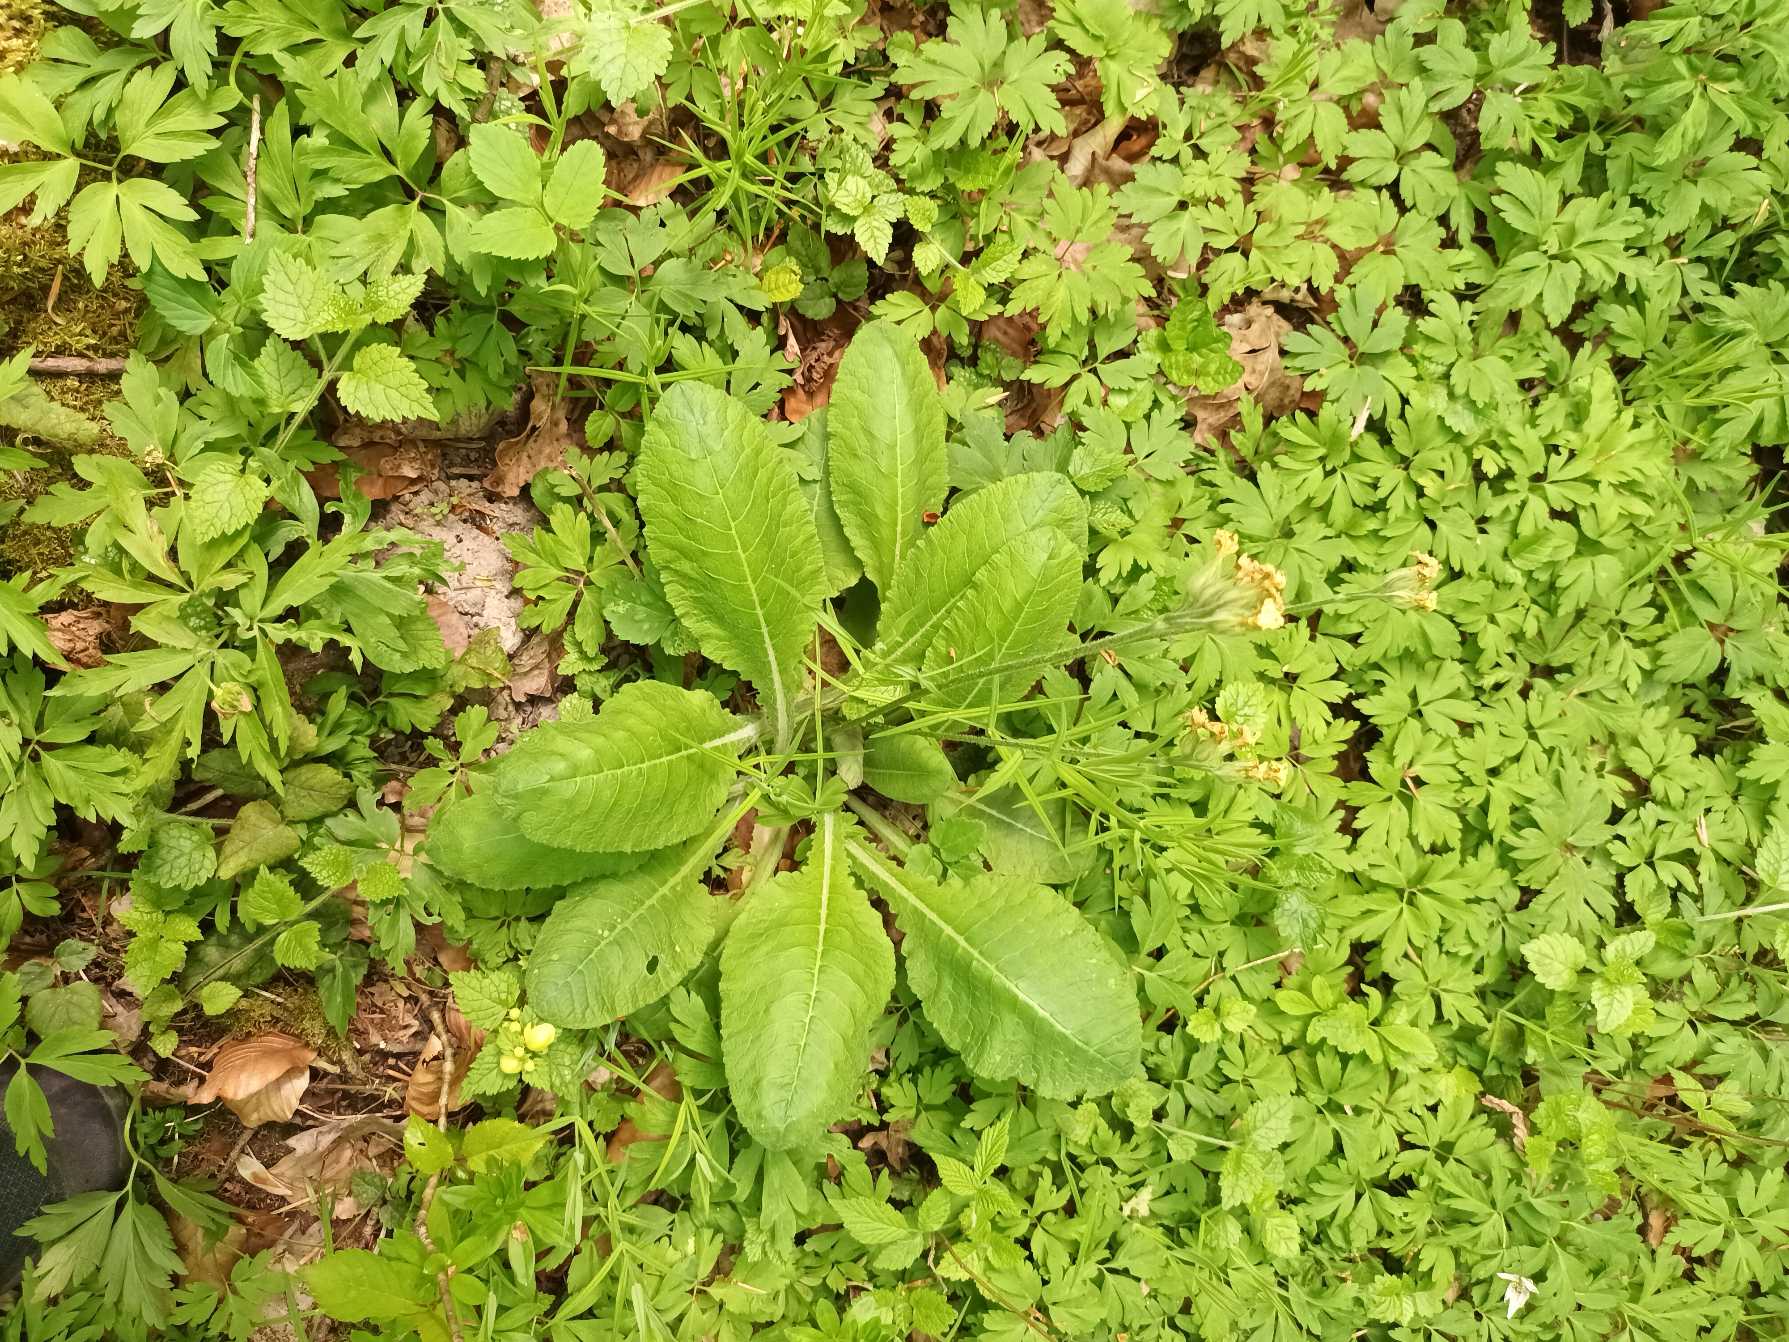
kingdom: Plantae
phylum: Tracheophyta
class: Magnoliopsida
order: Ericales
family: Primulaceae
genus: Primula
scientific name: Primula elatior
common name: Fladkravet kodriver
